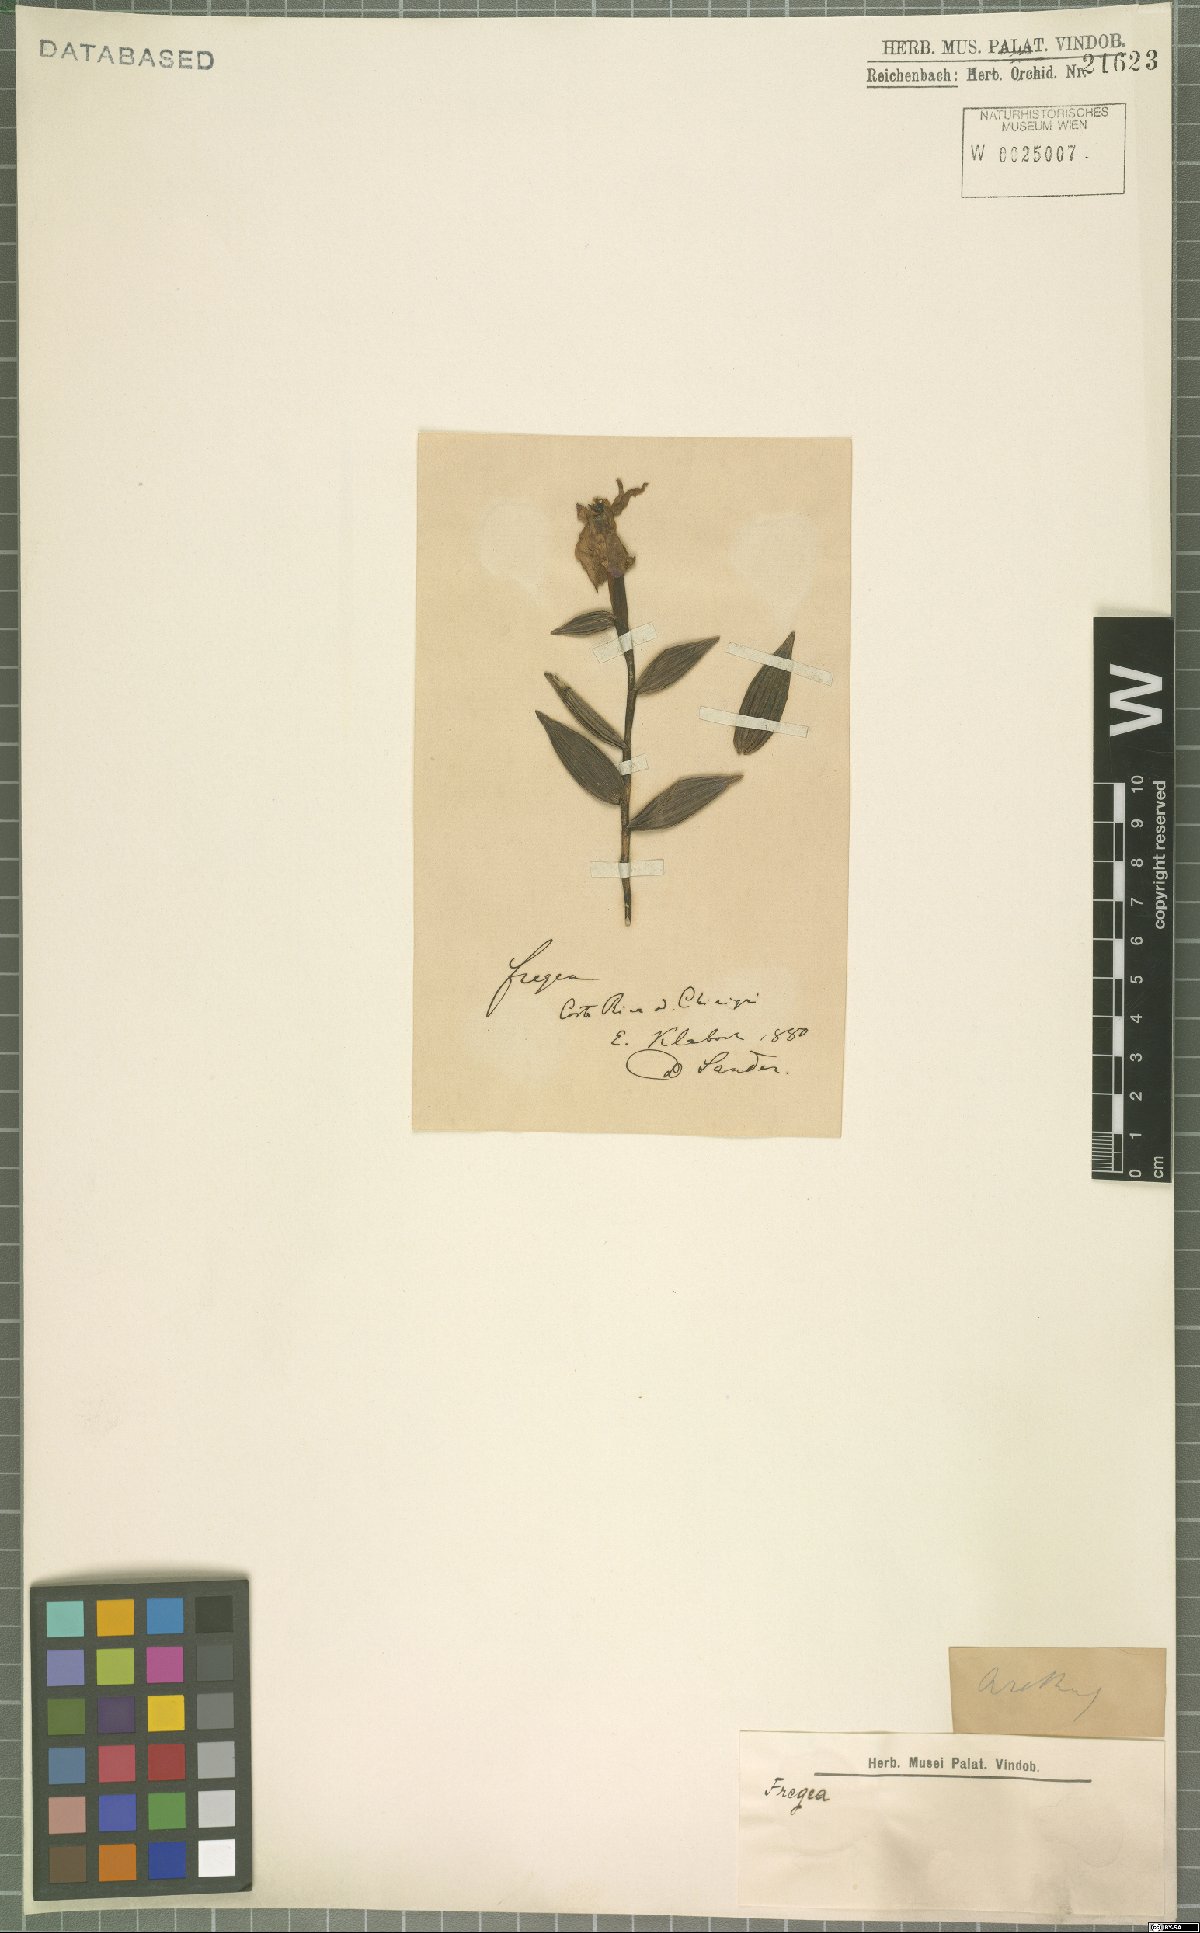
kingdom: Plantae
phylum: Tracheophyta
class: Liliopsida
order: Asparagales
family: Orchidaceae
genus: Sobralia
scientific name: Sobralia amabilis
